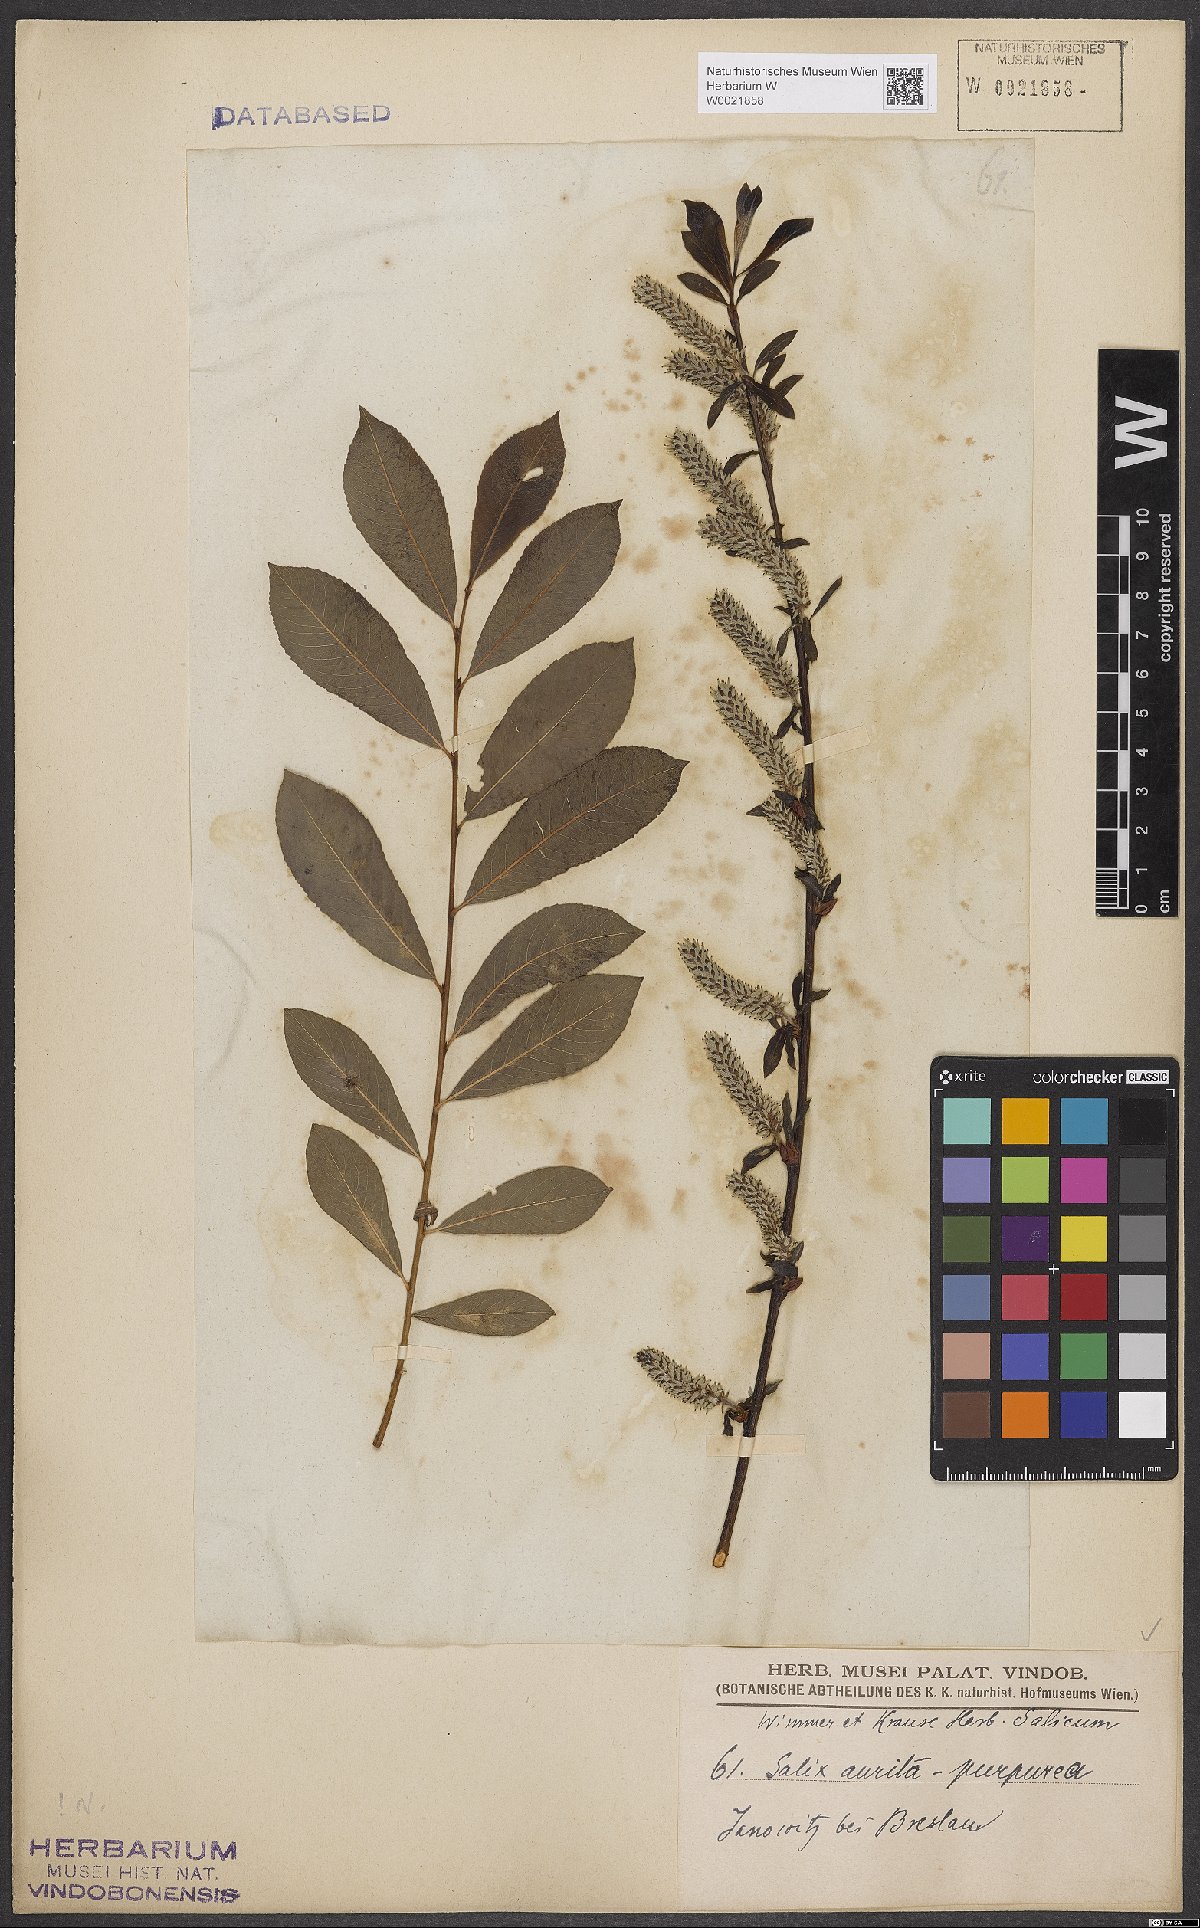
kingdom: Plantae
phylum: Tracheophyta
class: Magnoliopsida
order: Malpighiales
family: Salicaceae
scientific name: Salicaceae
